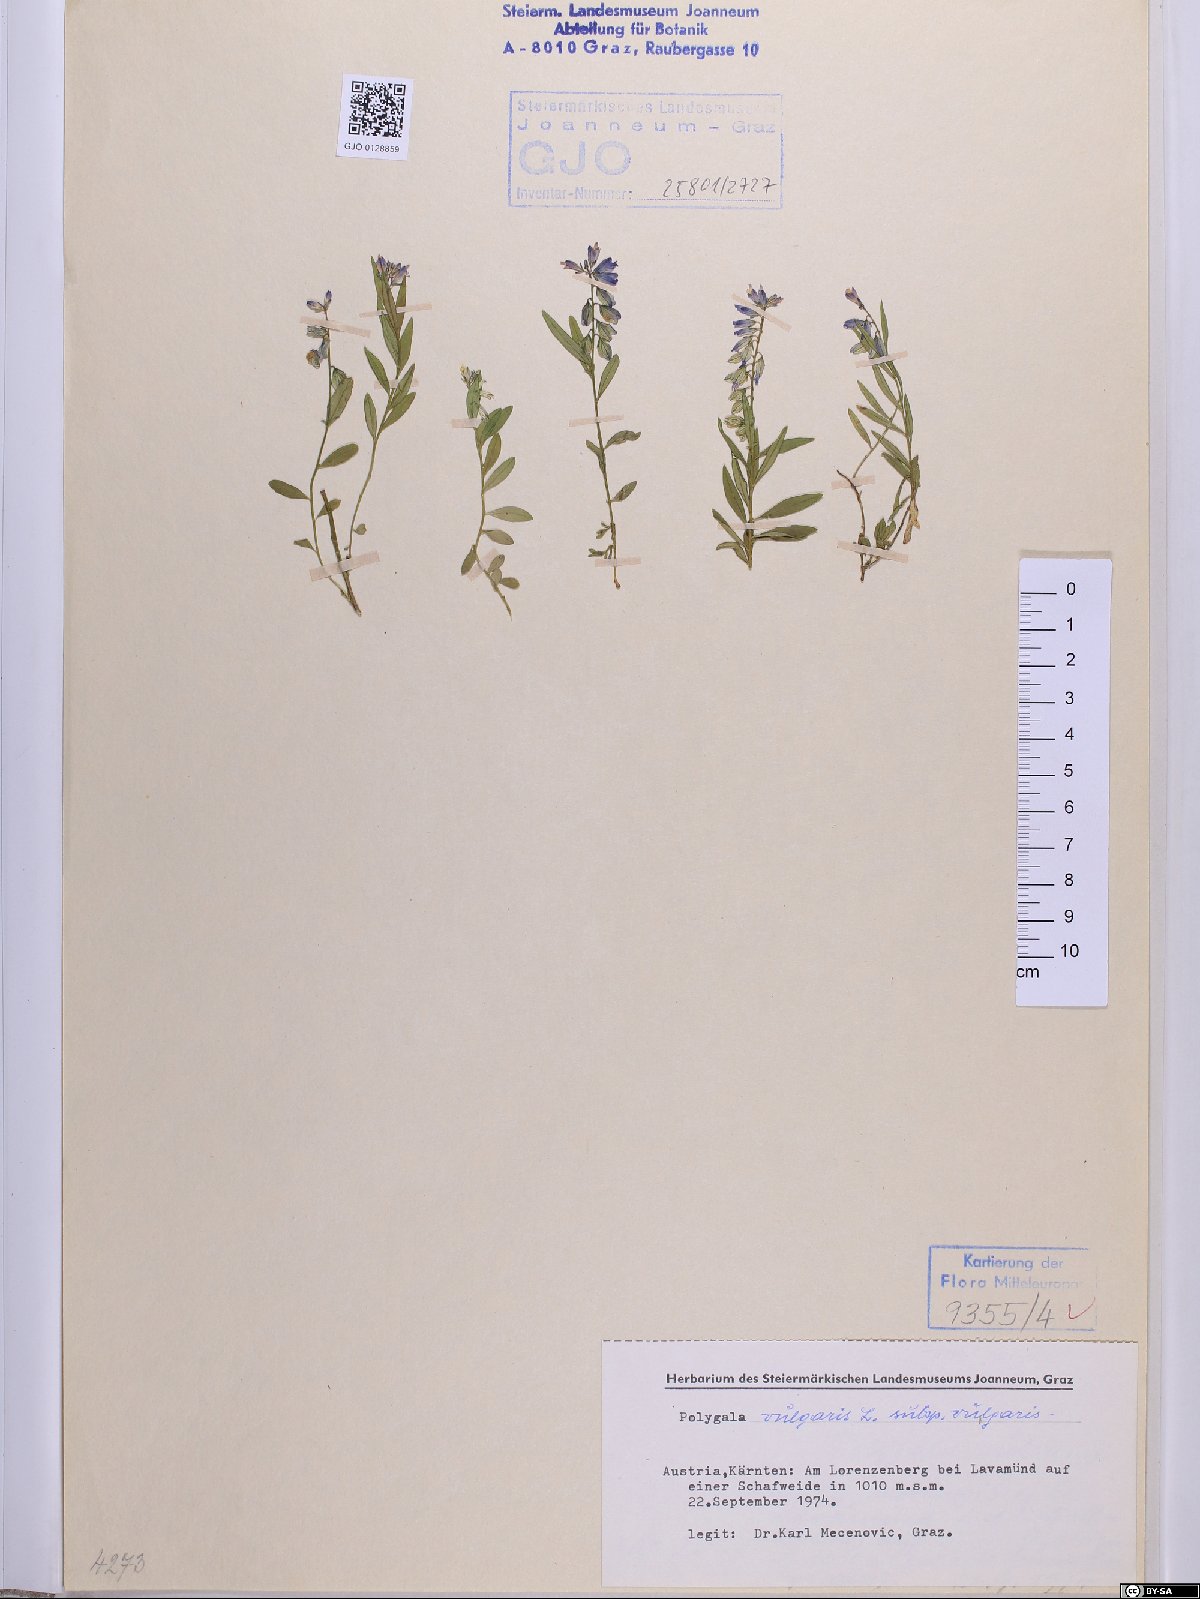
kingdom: Plantae
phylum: Tracheophyta
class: Magnoliopsida
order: Fabales
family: Polygalaceae
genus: Polygala
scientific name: Polygala vulgaris
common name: Common milkwort
